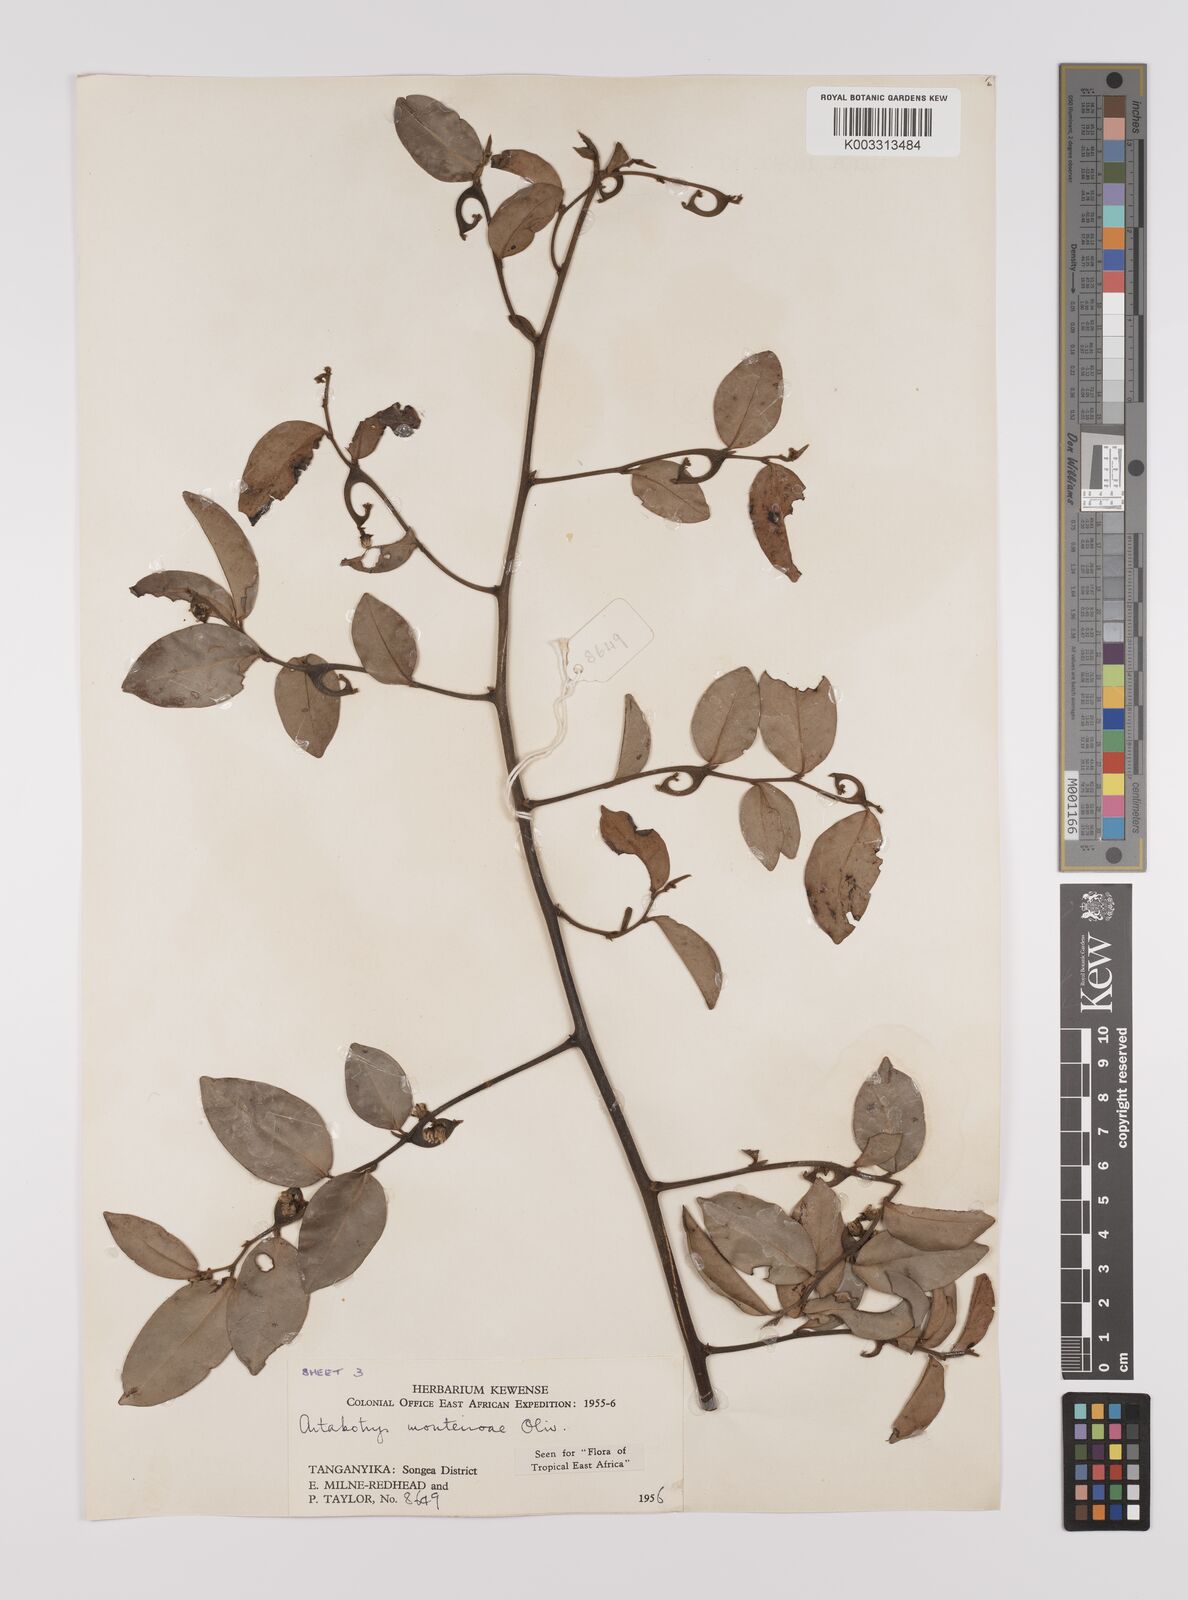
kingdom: Plantae
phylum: Tracheophyta
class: Magnoliopsida
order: Magnoliales
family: Annonaceae
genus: Artabotrys
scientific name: Artabotrys monteiroae
